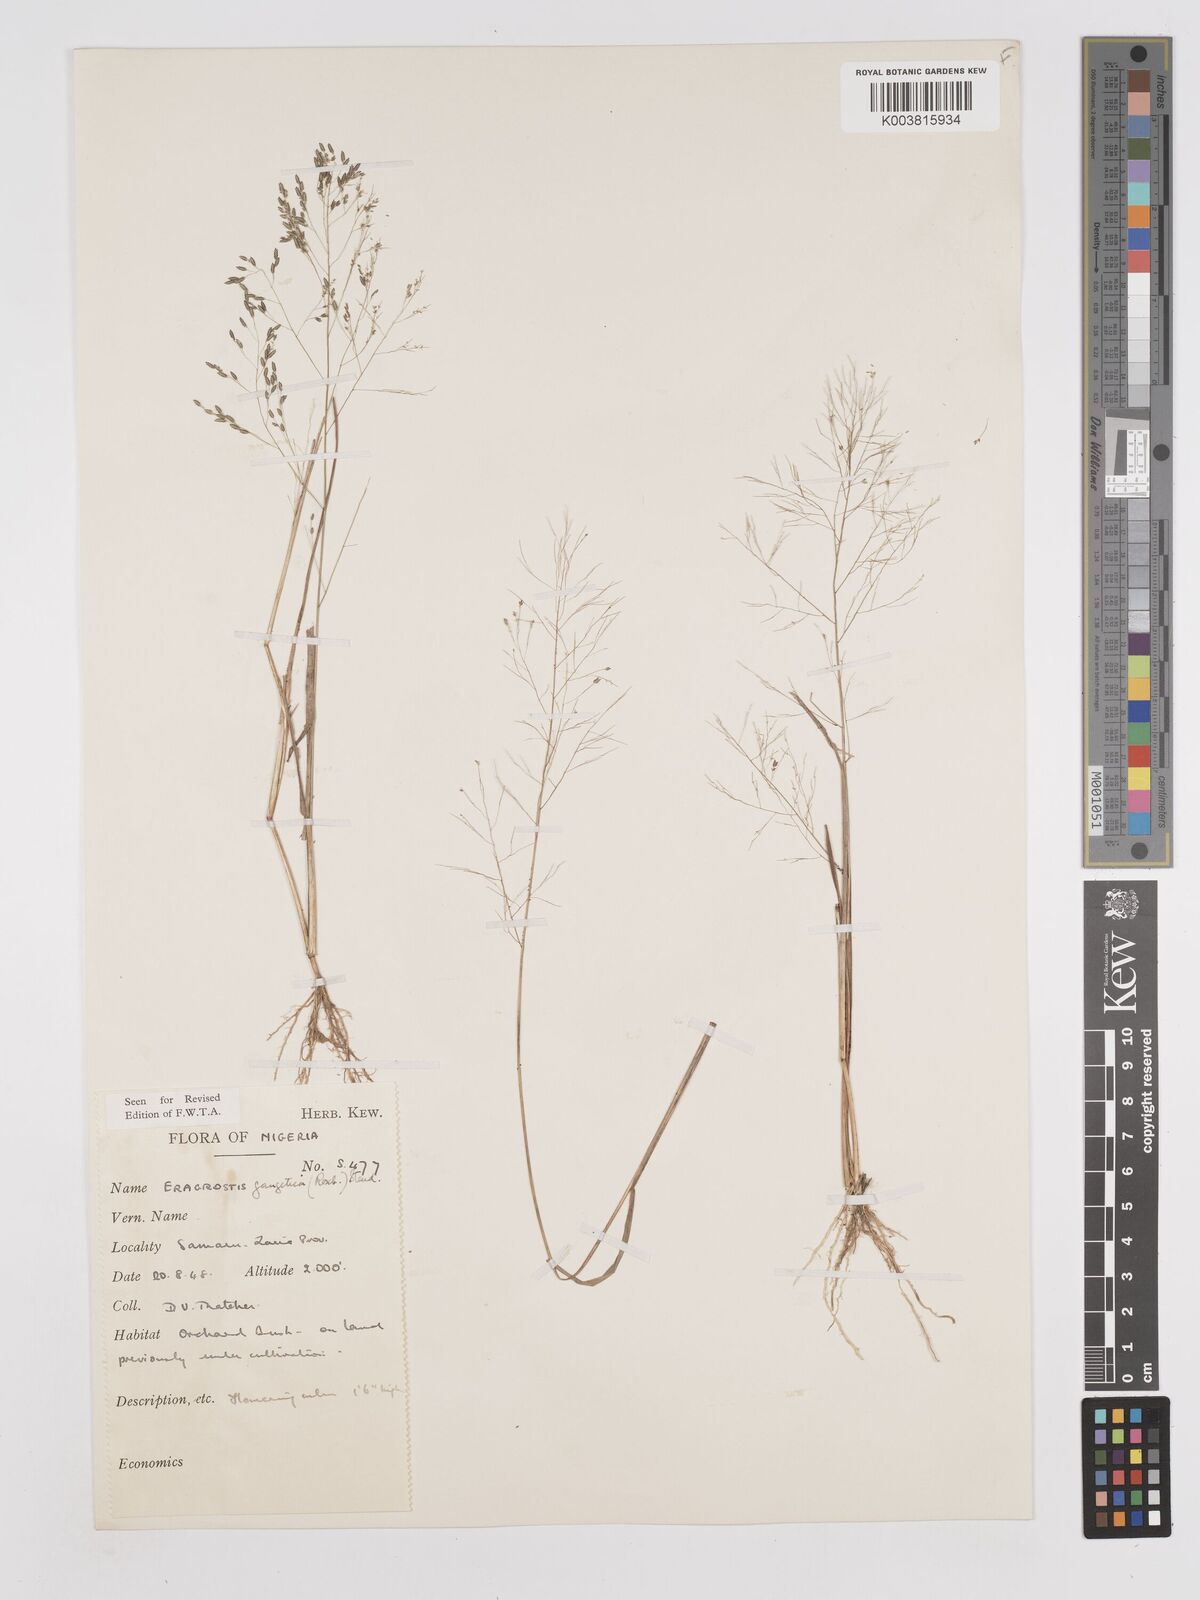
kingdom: Plantae
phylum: Tracheophyta
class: Liliopsida
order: Poales
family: Poaceae
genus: Eragrostis
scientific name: Eragrostis gangetica
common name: Slimflower lovegrass
